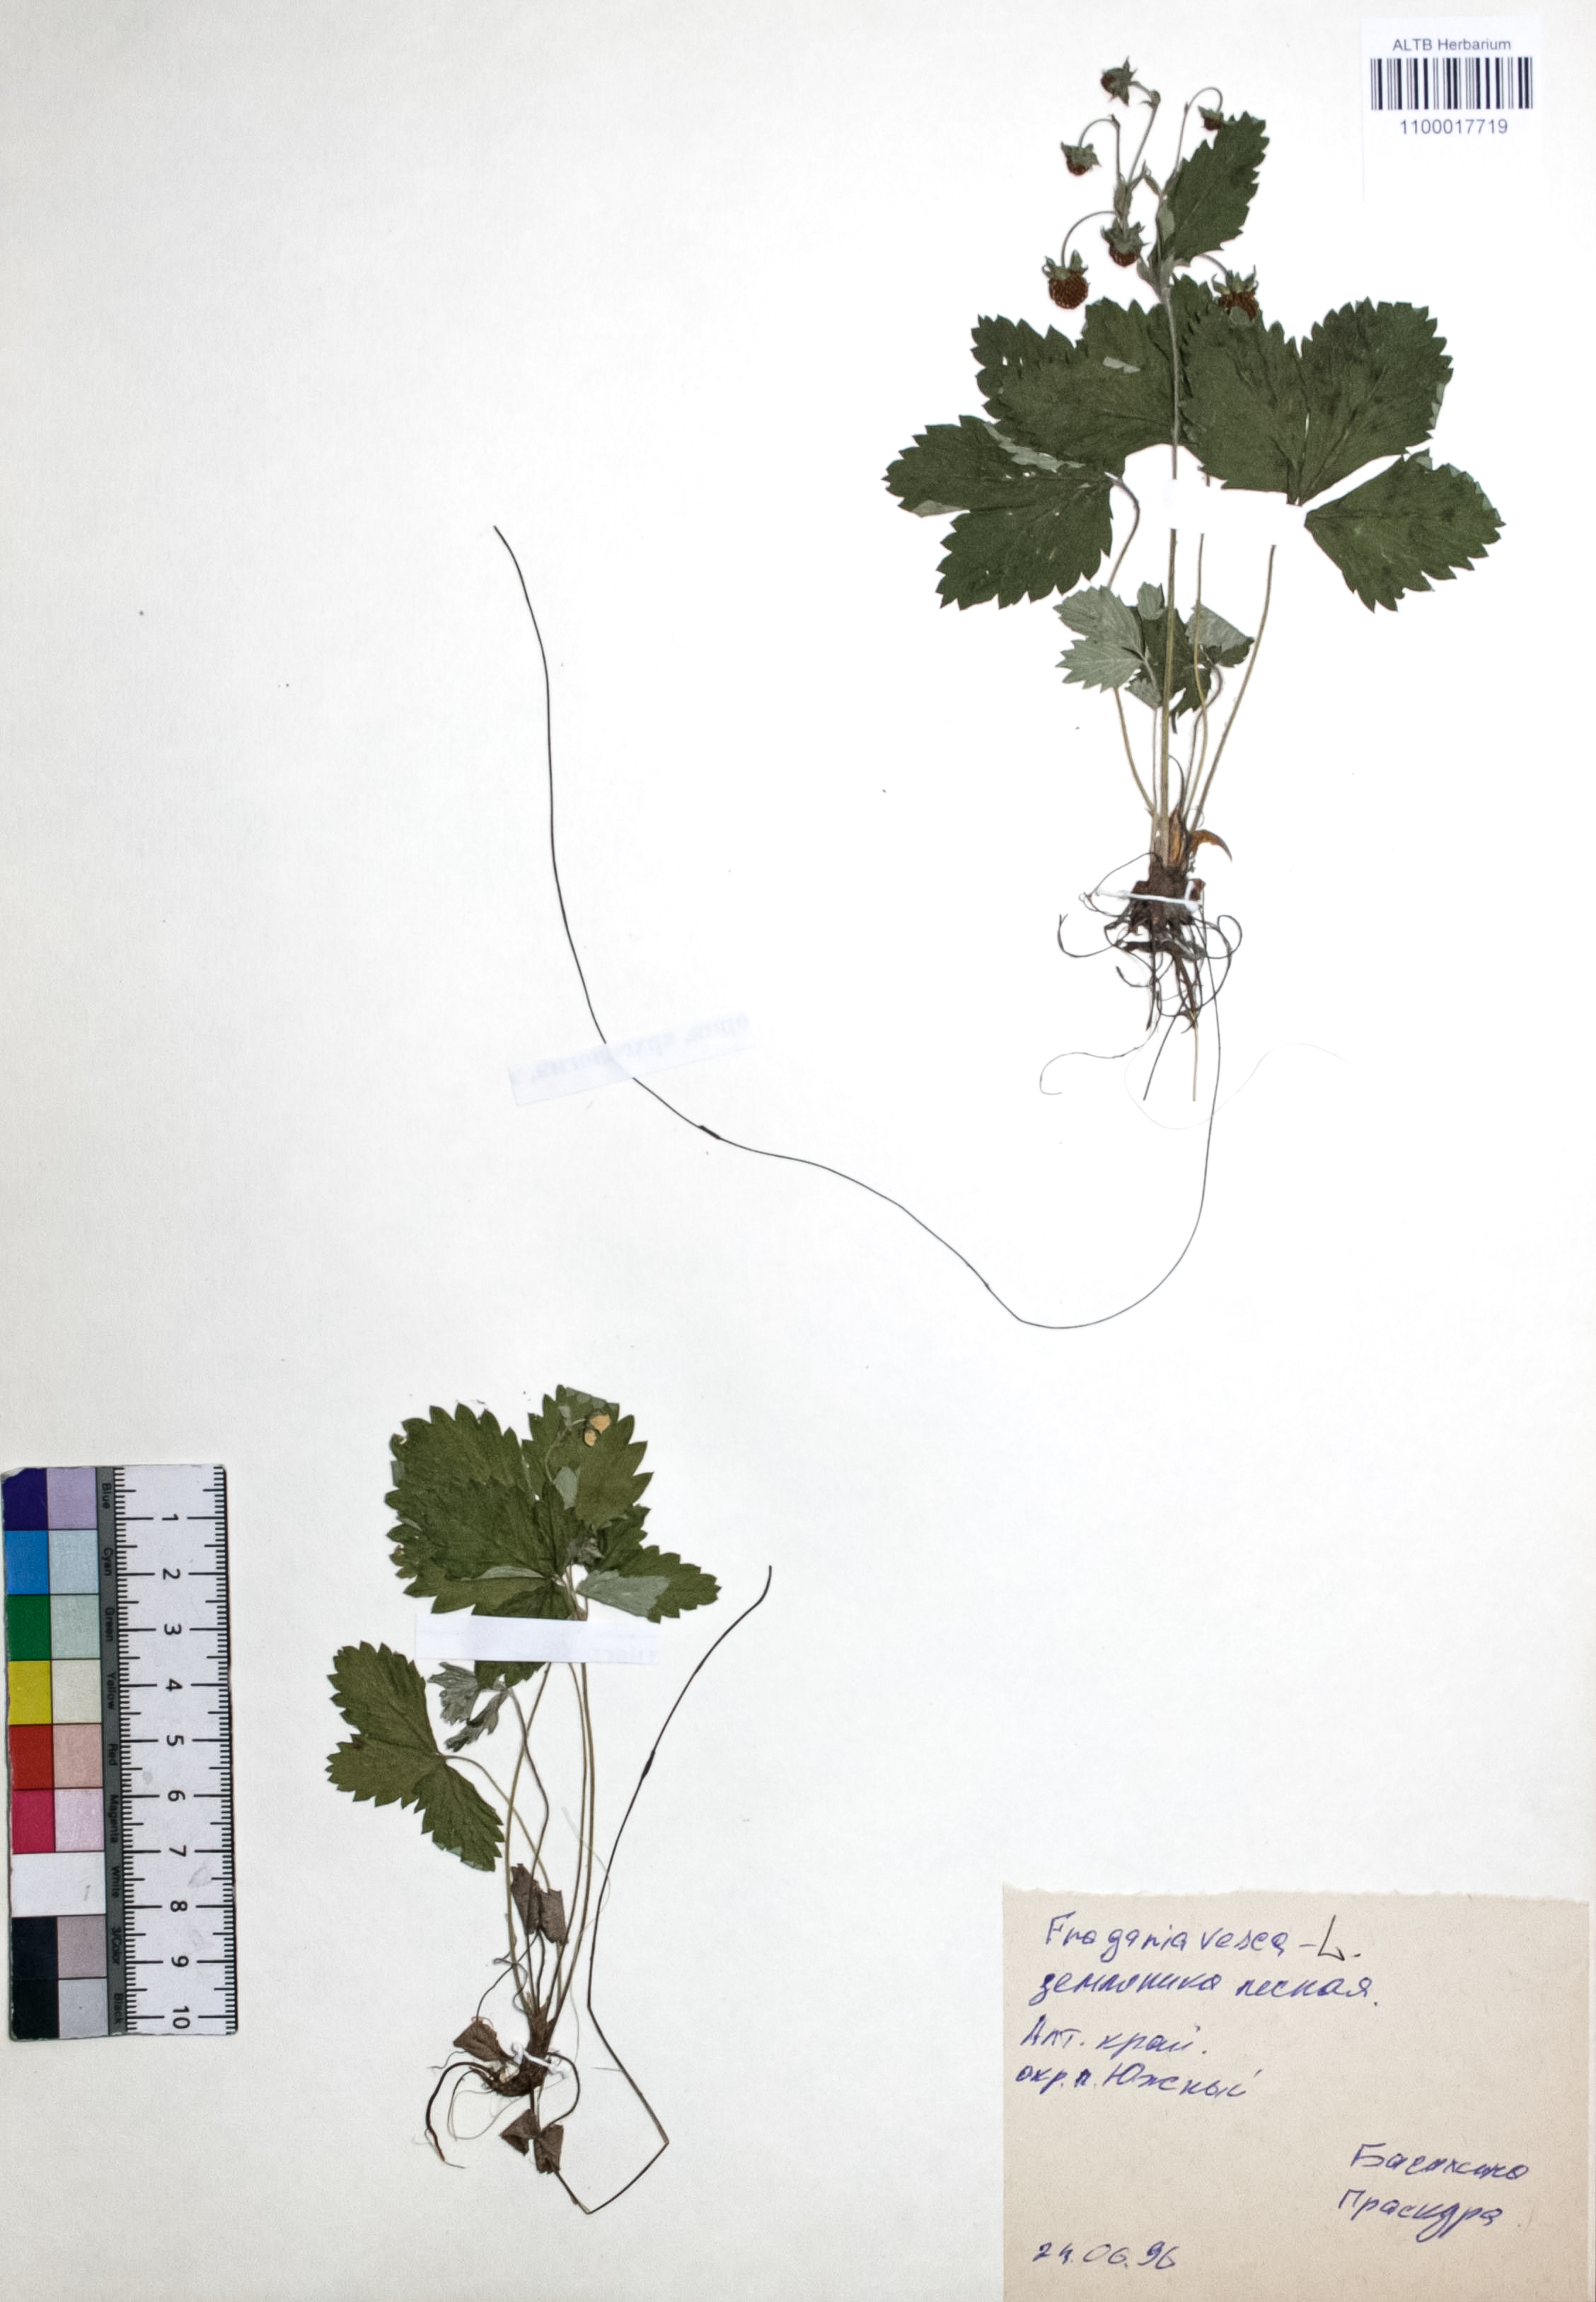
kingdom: Plantae
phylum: Tracheophyta
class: Magnoliopsida
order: Rosales
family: Rosaceae
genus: Fragaria
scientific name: Fragaria vesca
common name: Wild strawberry
